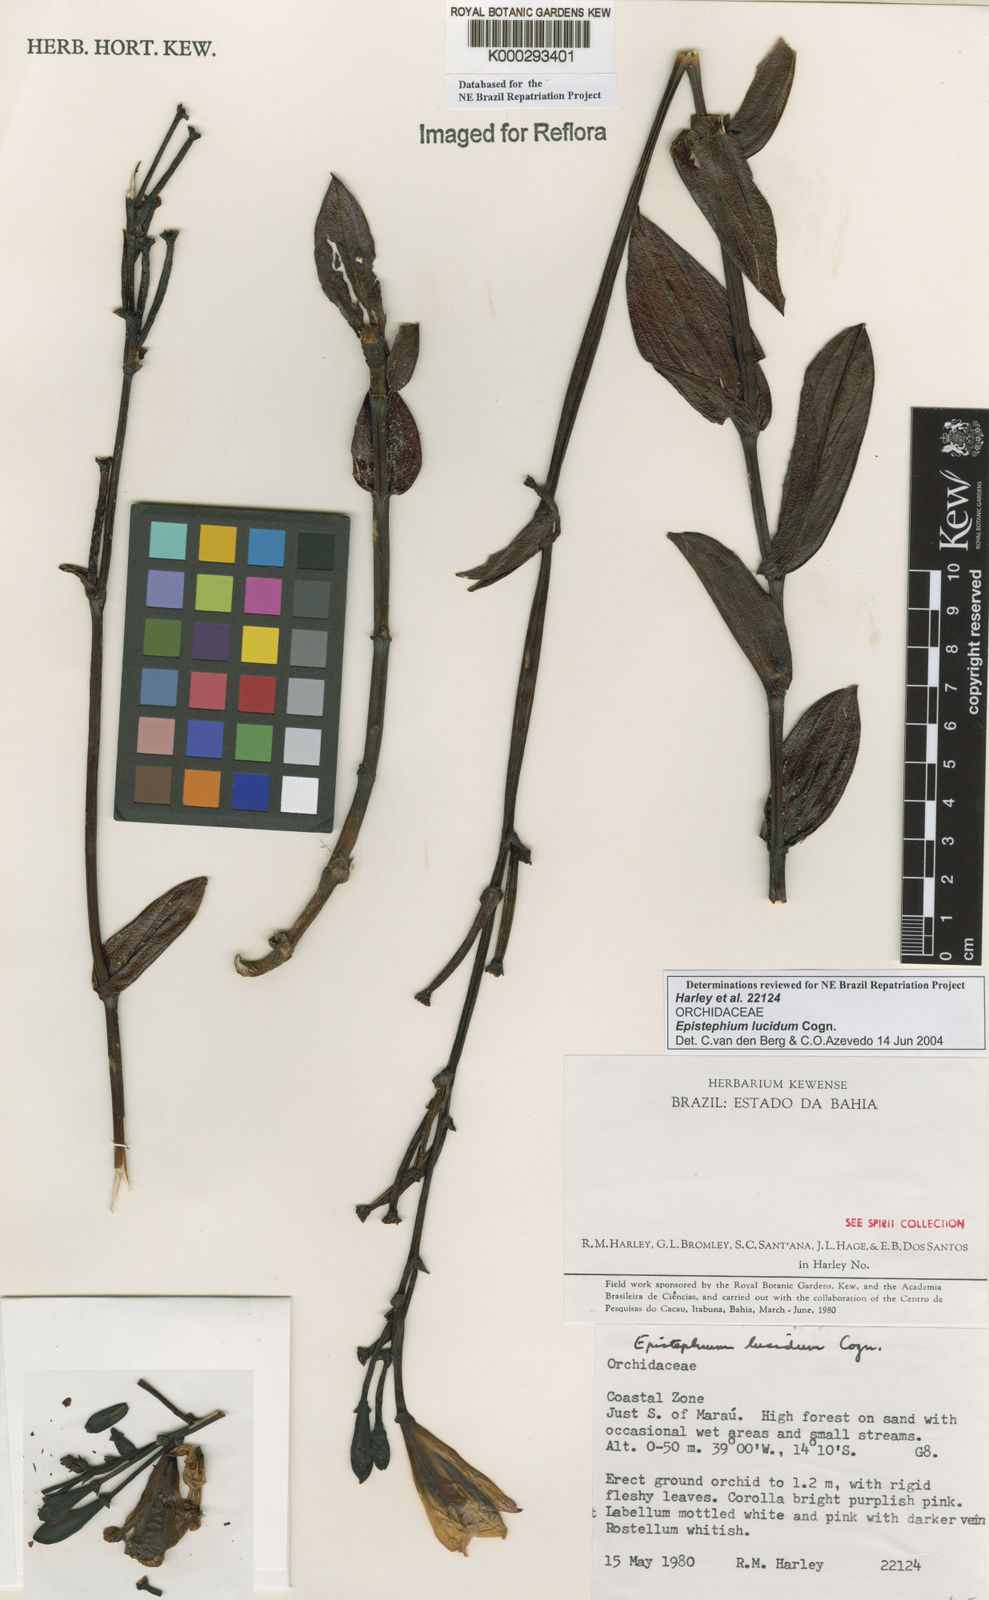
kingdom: Plantae
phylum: Tracheophyta
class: Liliopsida
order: Asparagales
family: Orchidaceae
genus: Epistephium
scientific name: Epistephium williamsii
